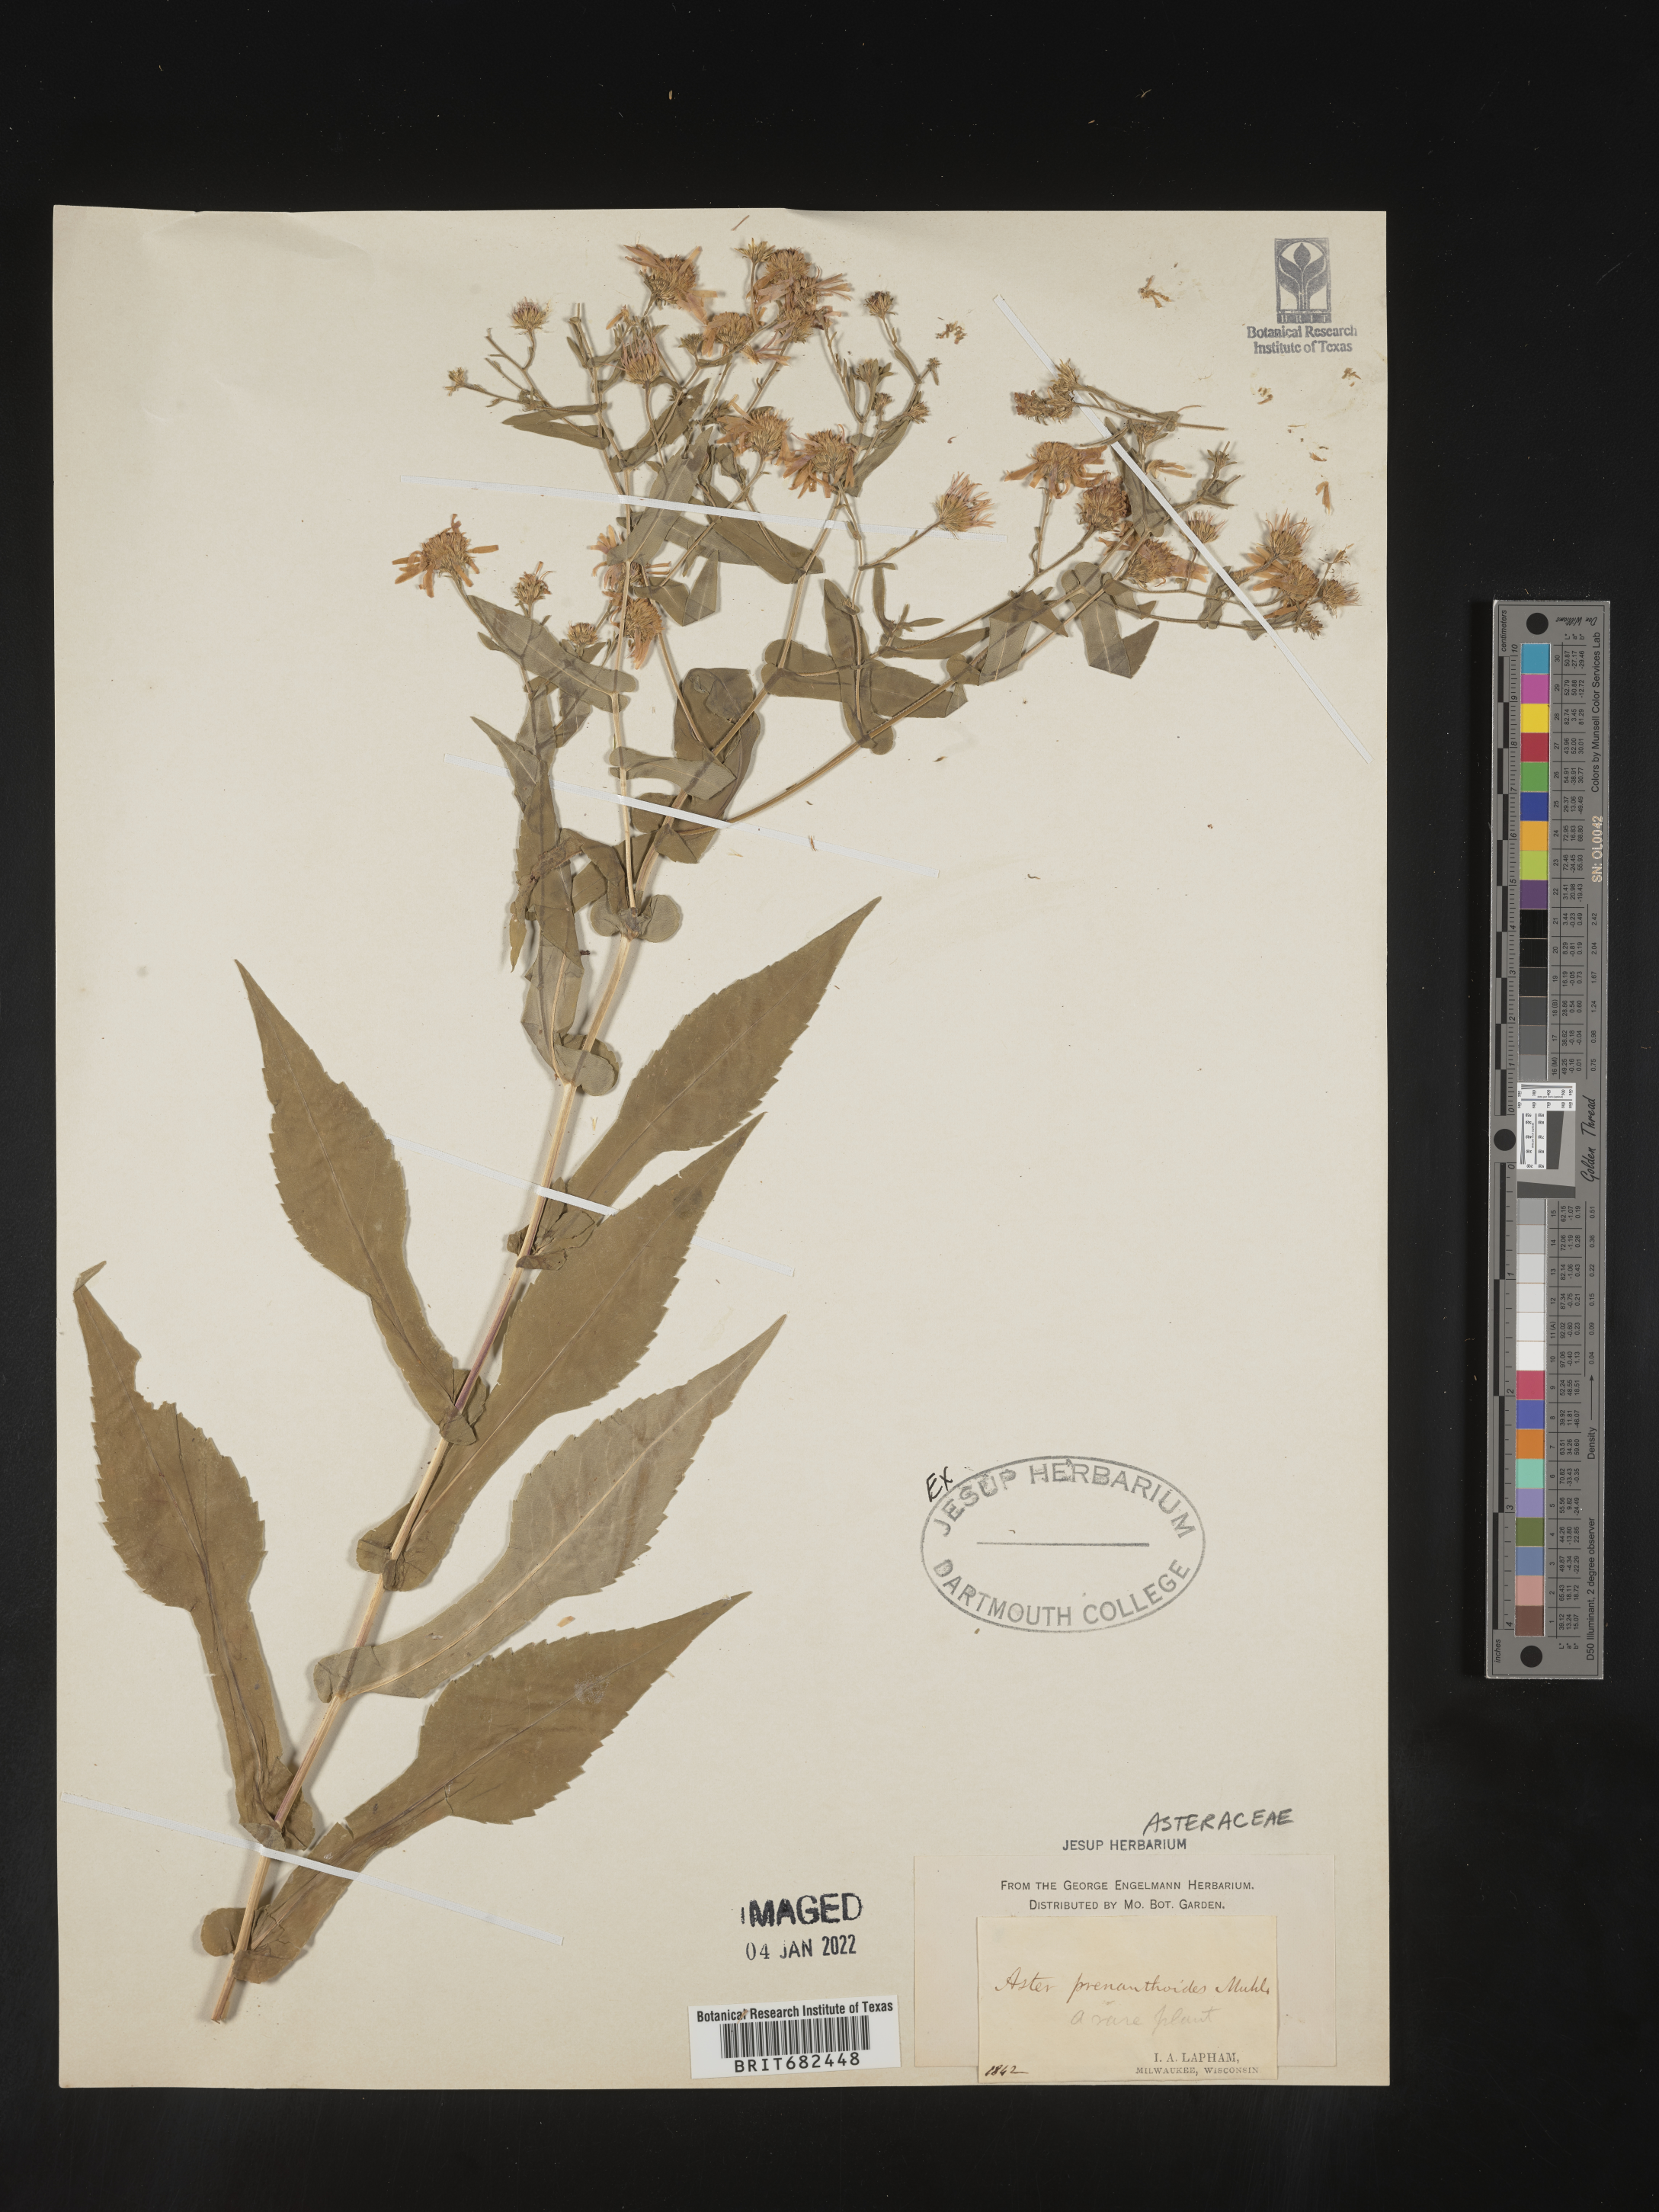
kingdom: Plantae
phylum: Tracheophyta
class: Magnoliopsida
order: Asterales
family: Asteraceae
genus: Aster
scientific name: Aster
